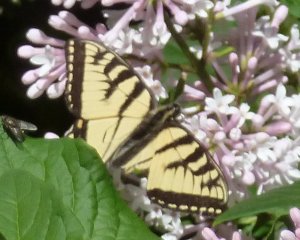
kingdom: Animalia
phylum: Arthropoda
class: Insecta
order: Lepidoptera
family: Papilionidae
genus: Pterourus
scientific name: Pterourus canadensis
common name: Canadian Tiger Swallowtail
